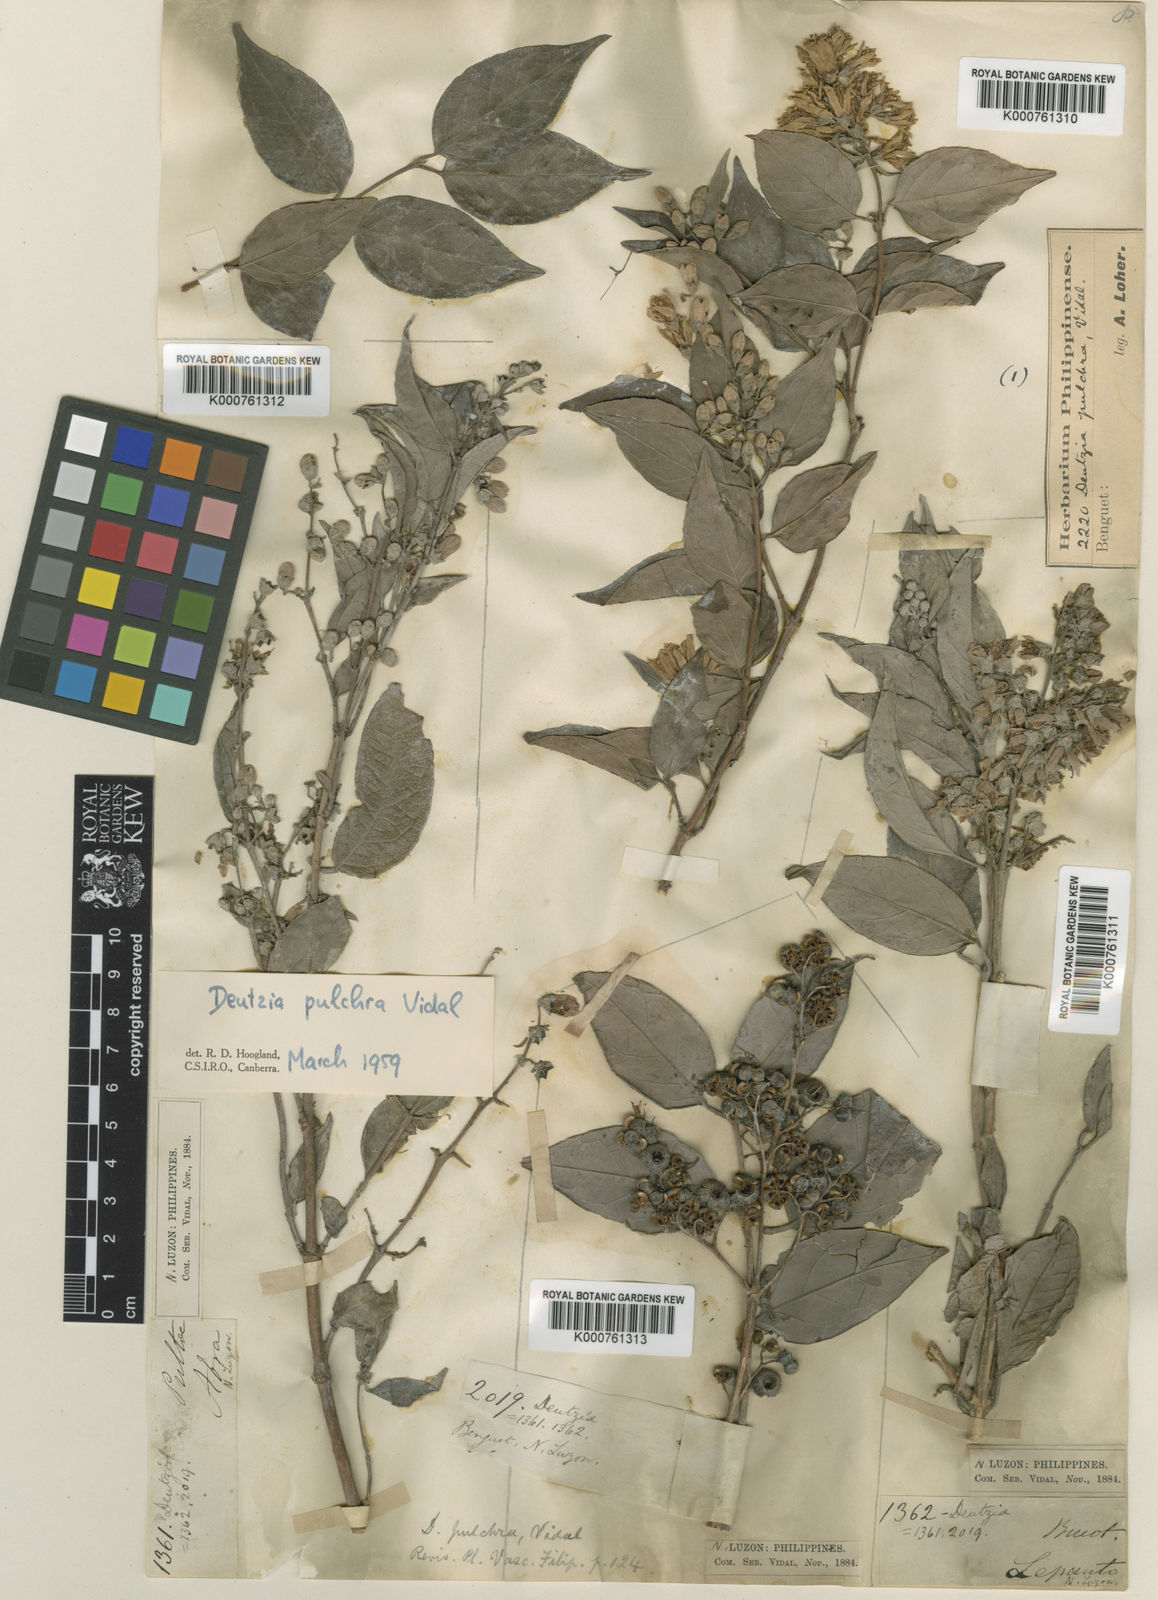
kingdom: Plantae
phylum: Tracheophyta
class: Magnoliopsida
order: Cornales
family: Hydrangeaceae
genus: Deutzia
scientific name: Deutzia pulchra
